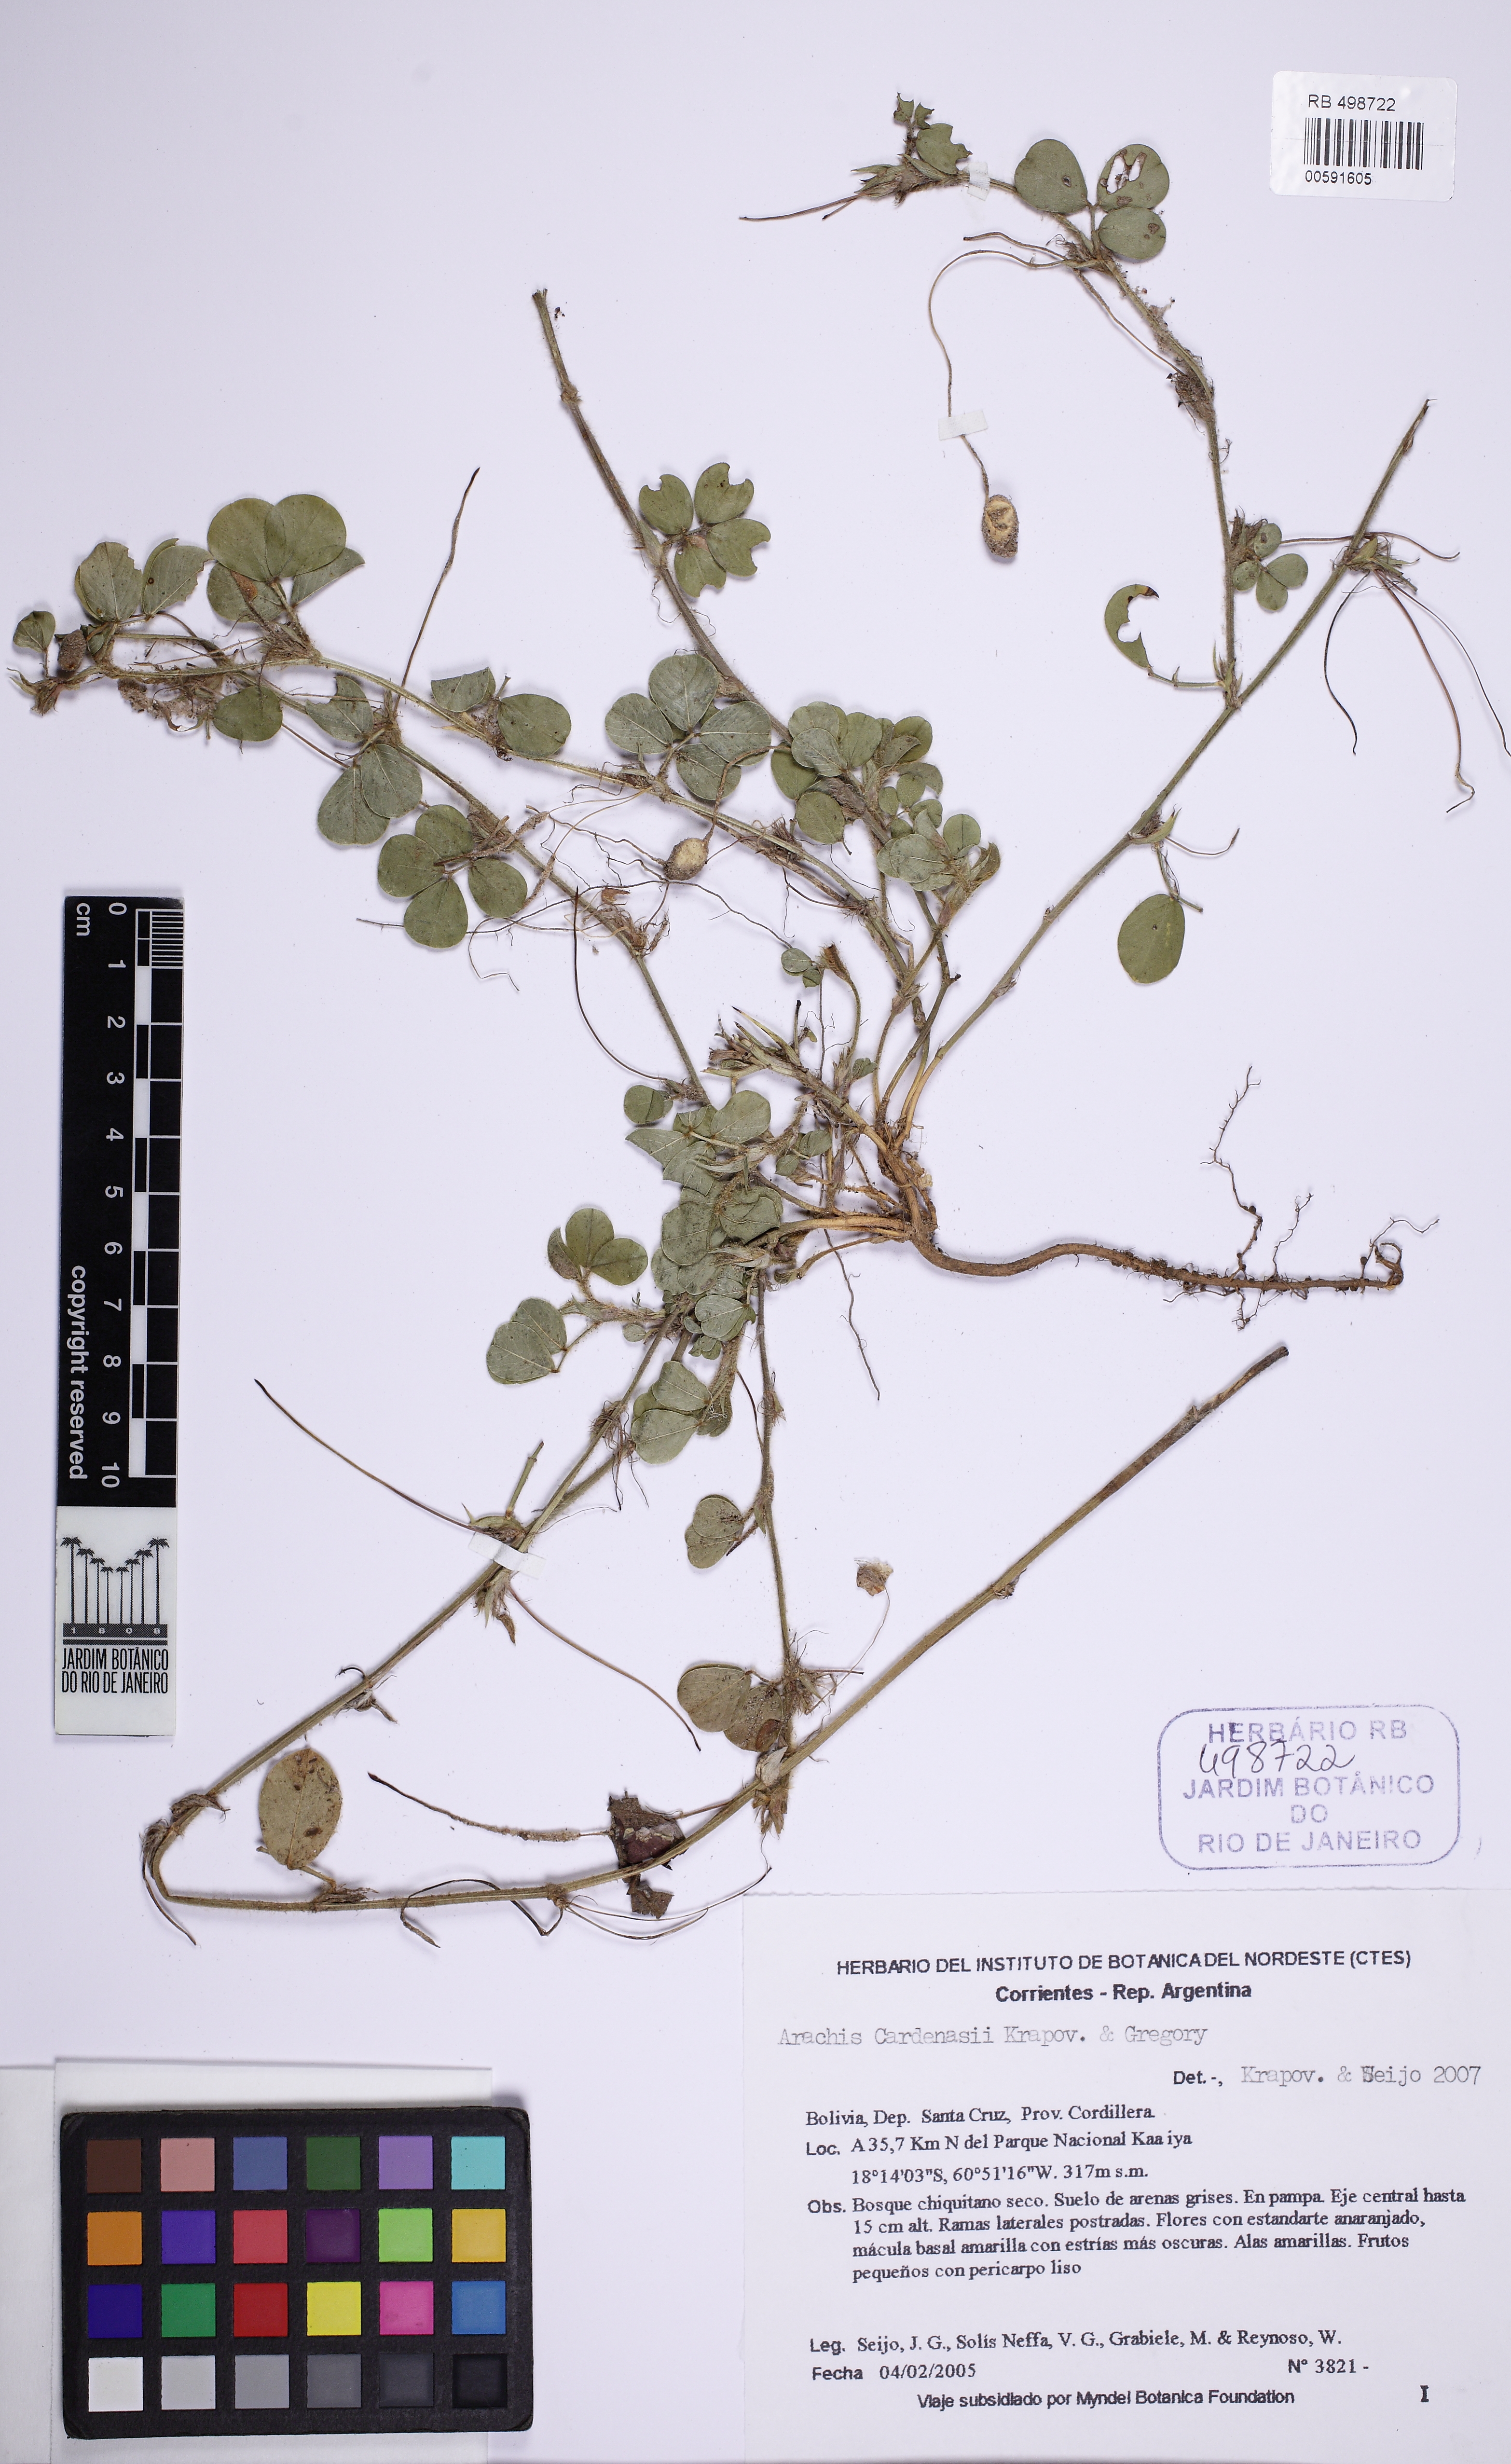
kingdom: Plantae
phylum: Tracheophyta
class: Magnoliopsida
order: Fabales
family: Fabaceae
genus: Arachis
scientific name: Arachis cardenasii
